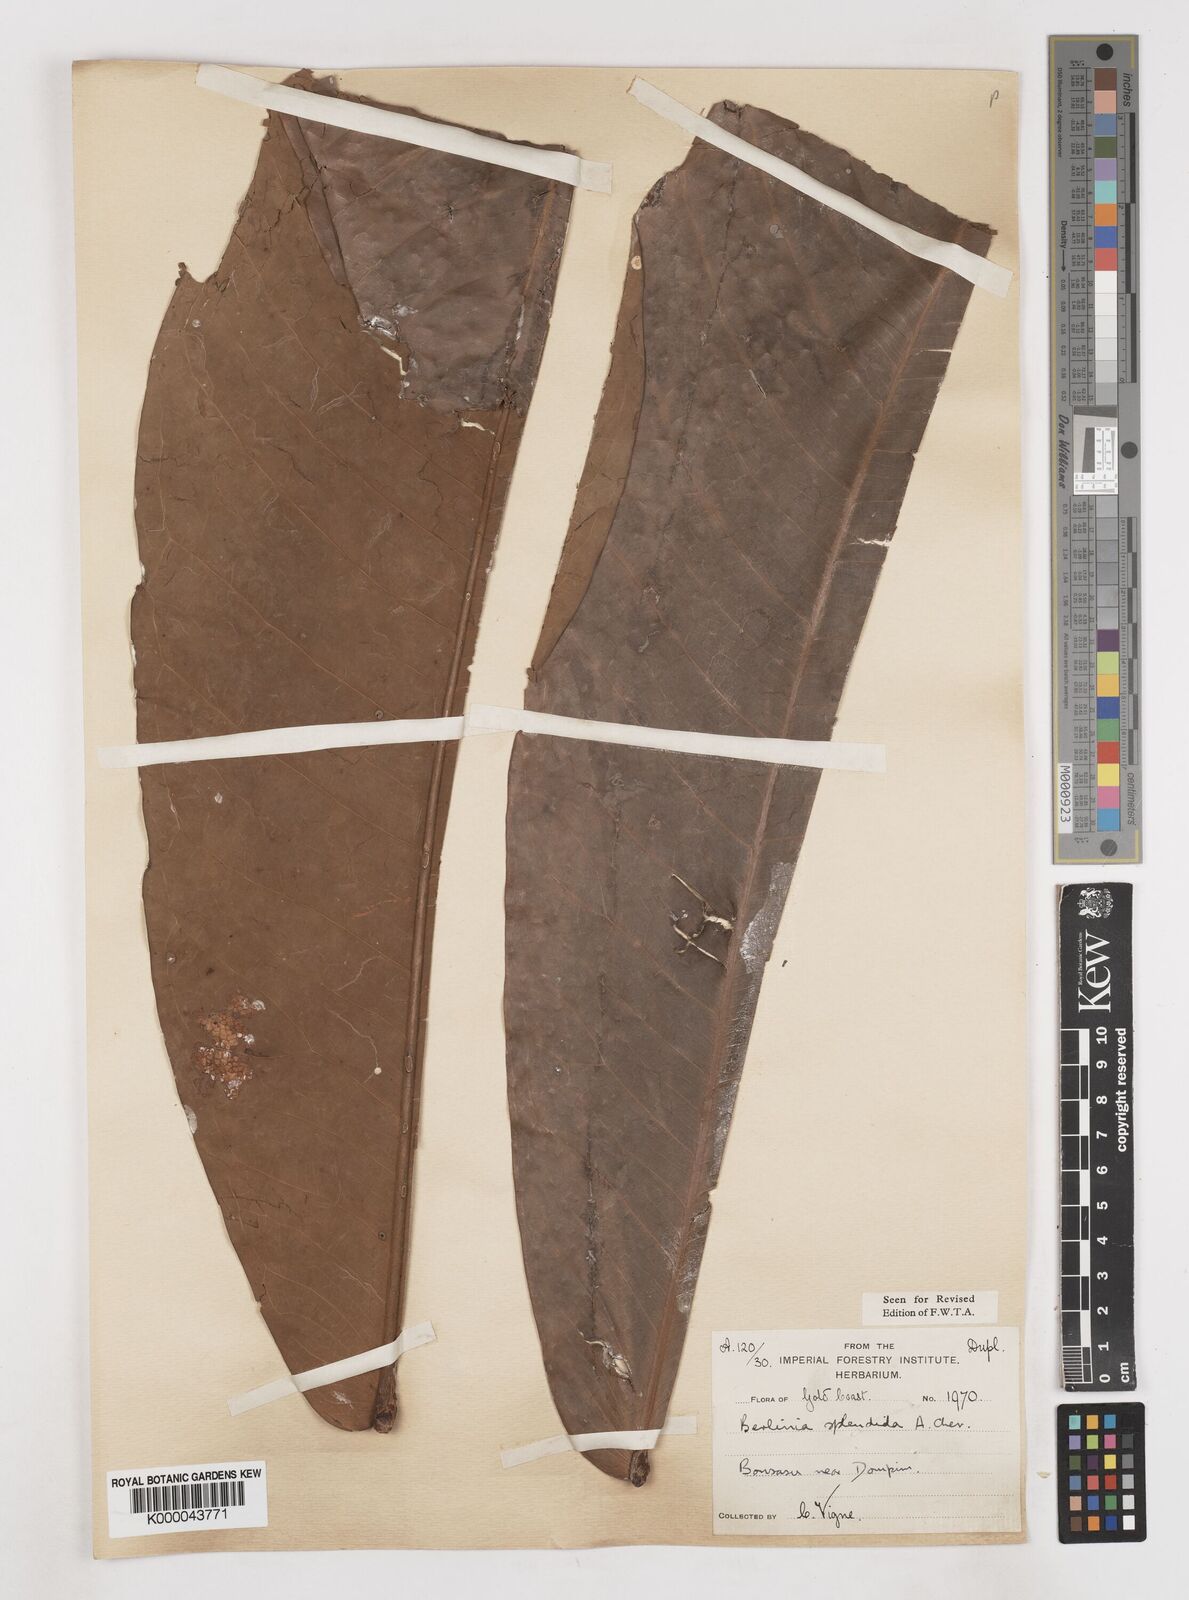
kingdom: Plantae
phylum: Tracheophyta
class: Magnoliopsida
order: Fabales
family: Fabaceae
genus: Gilbertiodendron
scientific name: Gilbertiodendron
